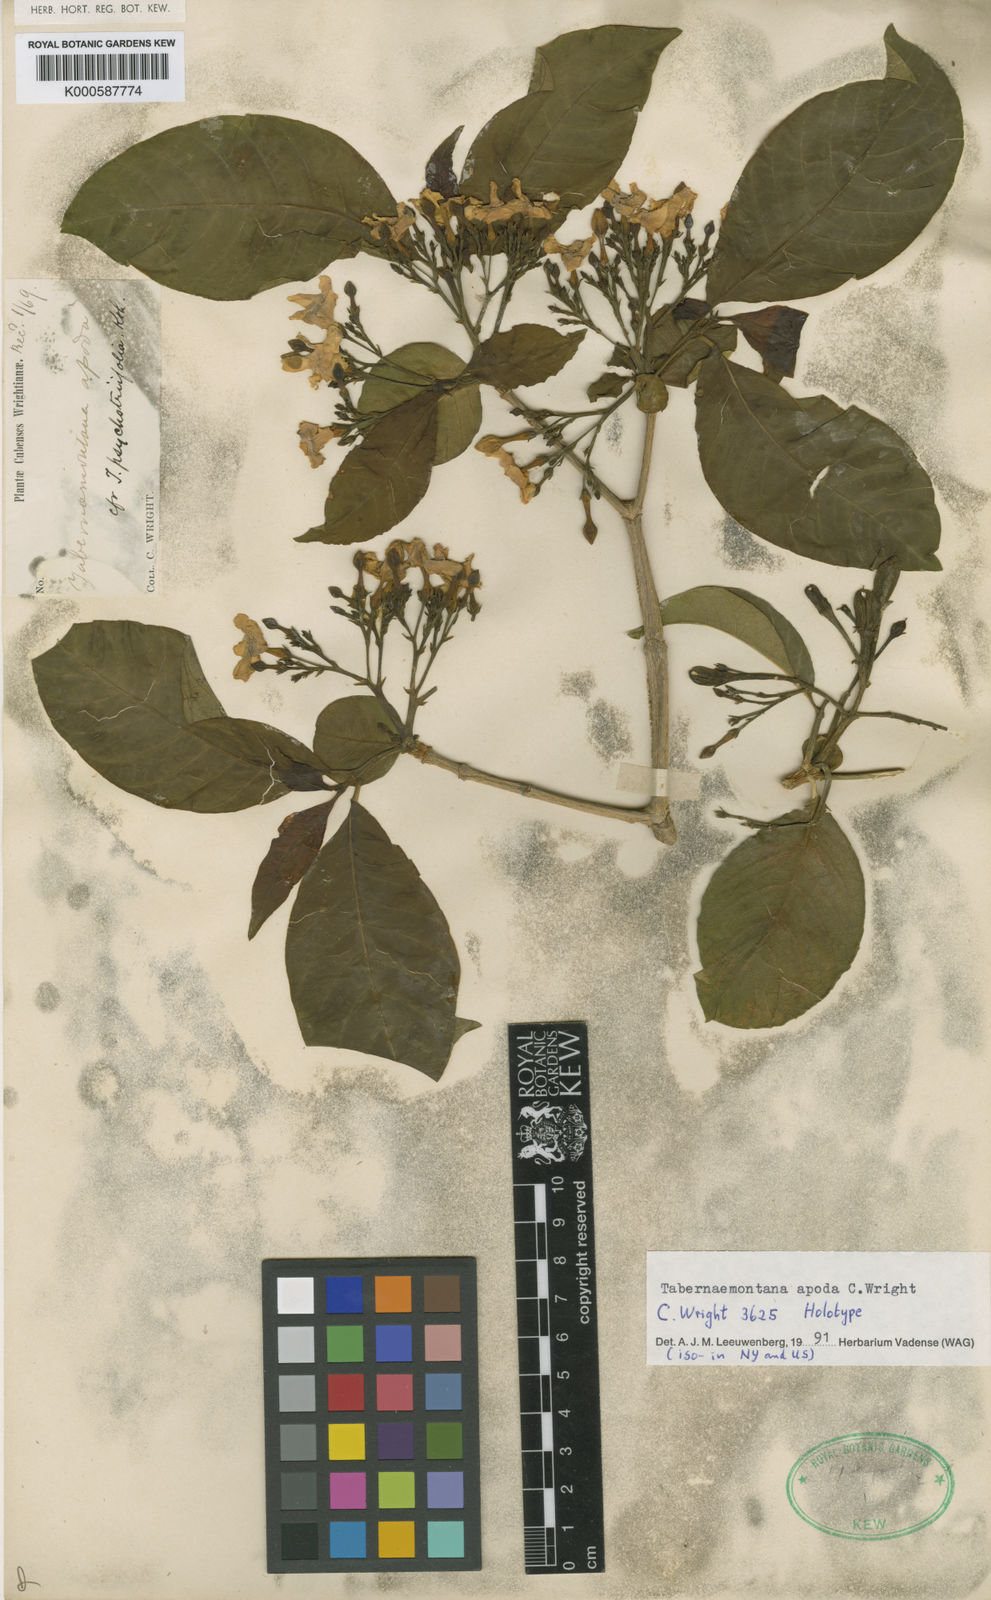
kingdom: Plantae
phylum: Tracheophyta
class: Magnoliopsida
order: Gentianales
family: Apocynaceae
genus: Tabernaemontana
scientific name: Tabernaemontana apoda
